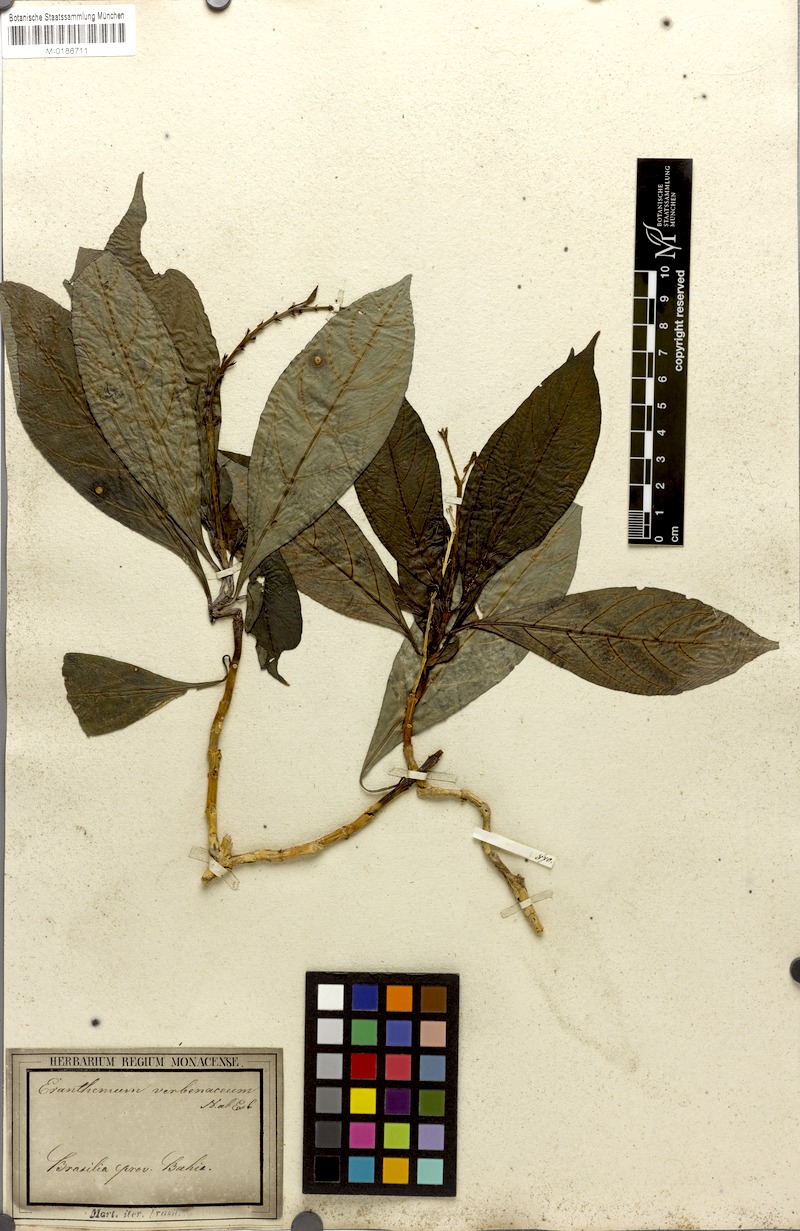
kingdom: Plantae
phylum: Tracheophyta
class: Magnoliopsida
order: Lamiales
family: Acanthaceae
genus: Pseuderanthemum
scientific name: Pseuderanthemum verbenaceum
